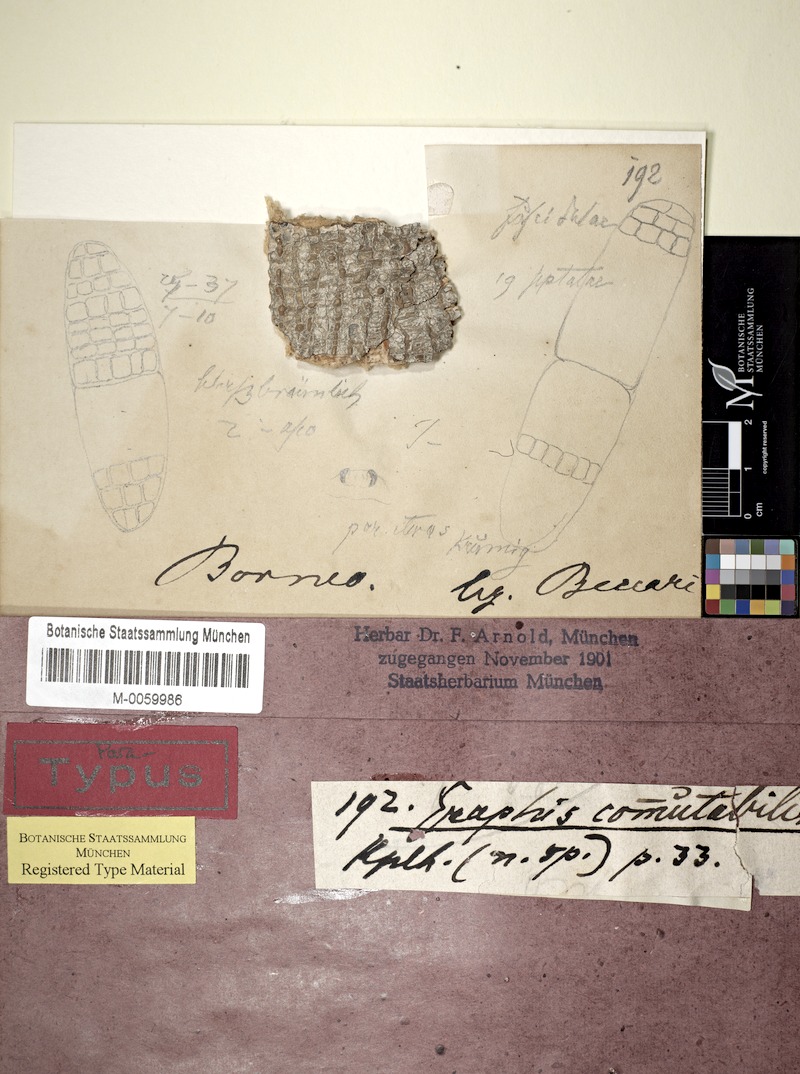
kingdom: Fungi
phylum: Ascomycota
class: Lecanoromycetes
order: Ostropales
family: Graphidaceae
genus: Platygramme
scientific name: Platygramme commutabilis
